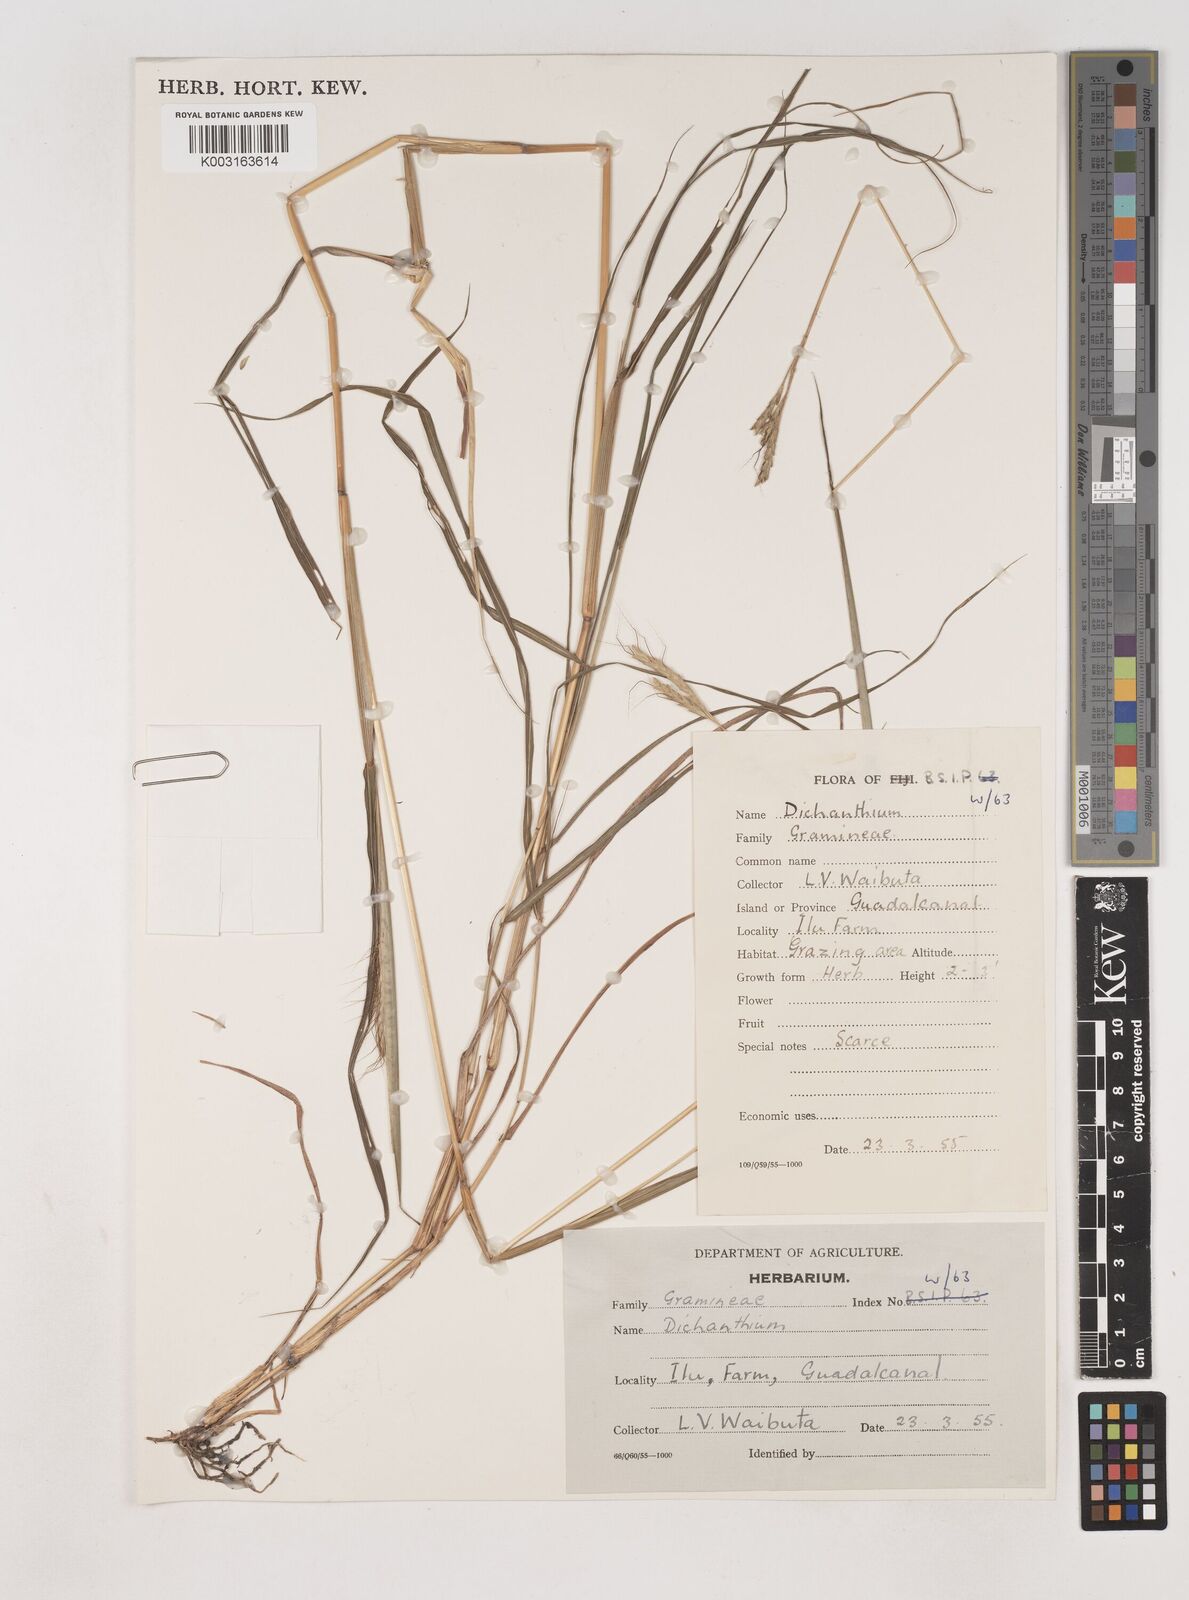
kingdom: Plantae
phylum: Tracheophyta
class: Liliopsida
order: Poales
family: Poaceae
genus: Dichanthium
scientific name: Dichanthium aristatum
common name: Angleton bluestem
